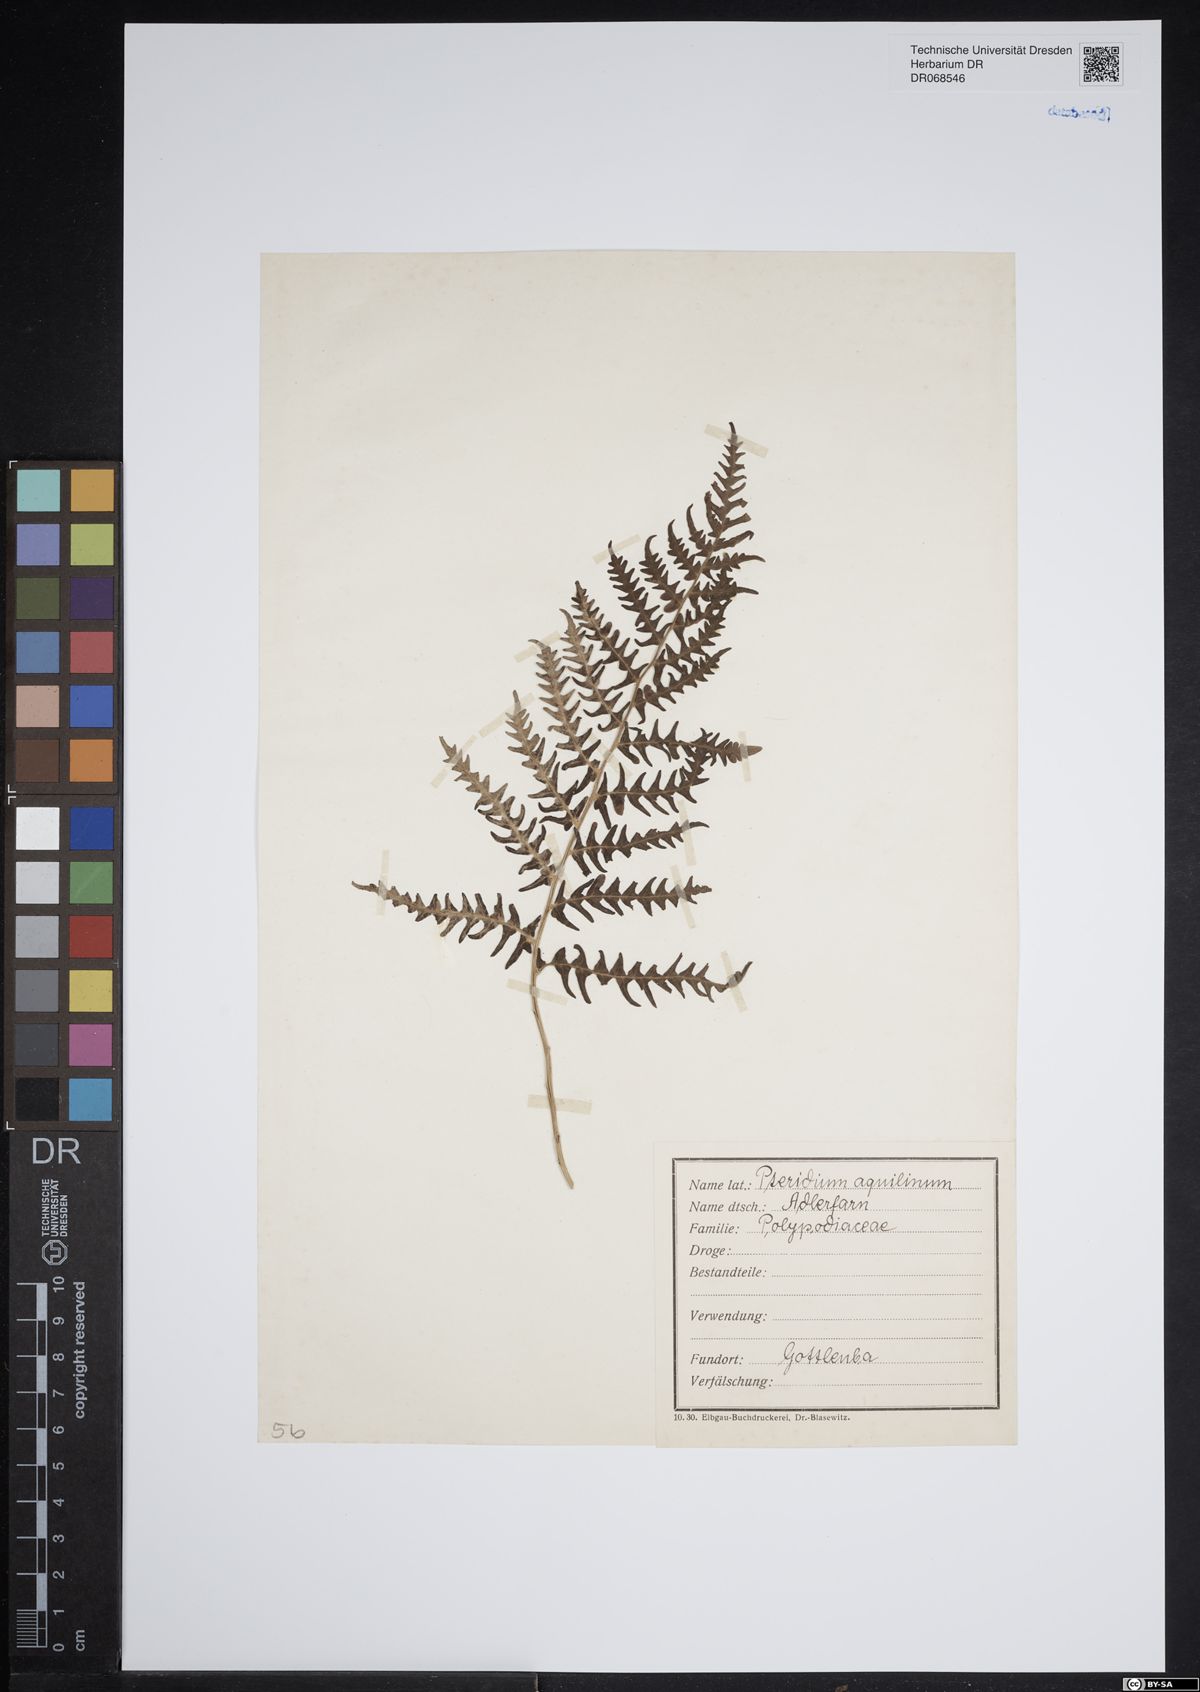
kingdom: Plantae
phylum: Tracheophyta
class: Polypodiopsida
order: Polypodiales
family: Dennstaedtiaceae
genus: Pteridium
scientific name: Pteridium aquilinum
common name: Bracken
